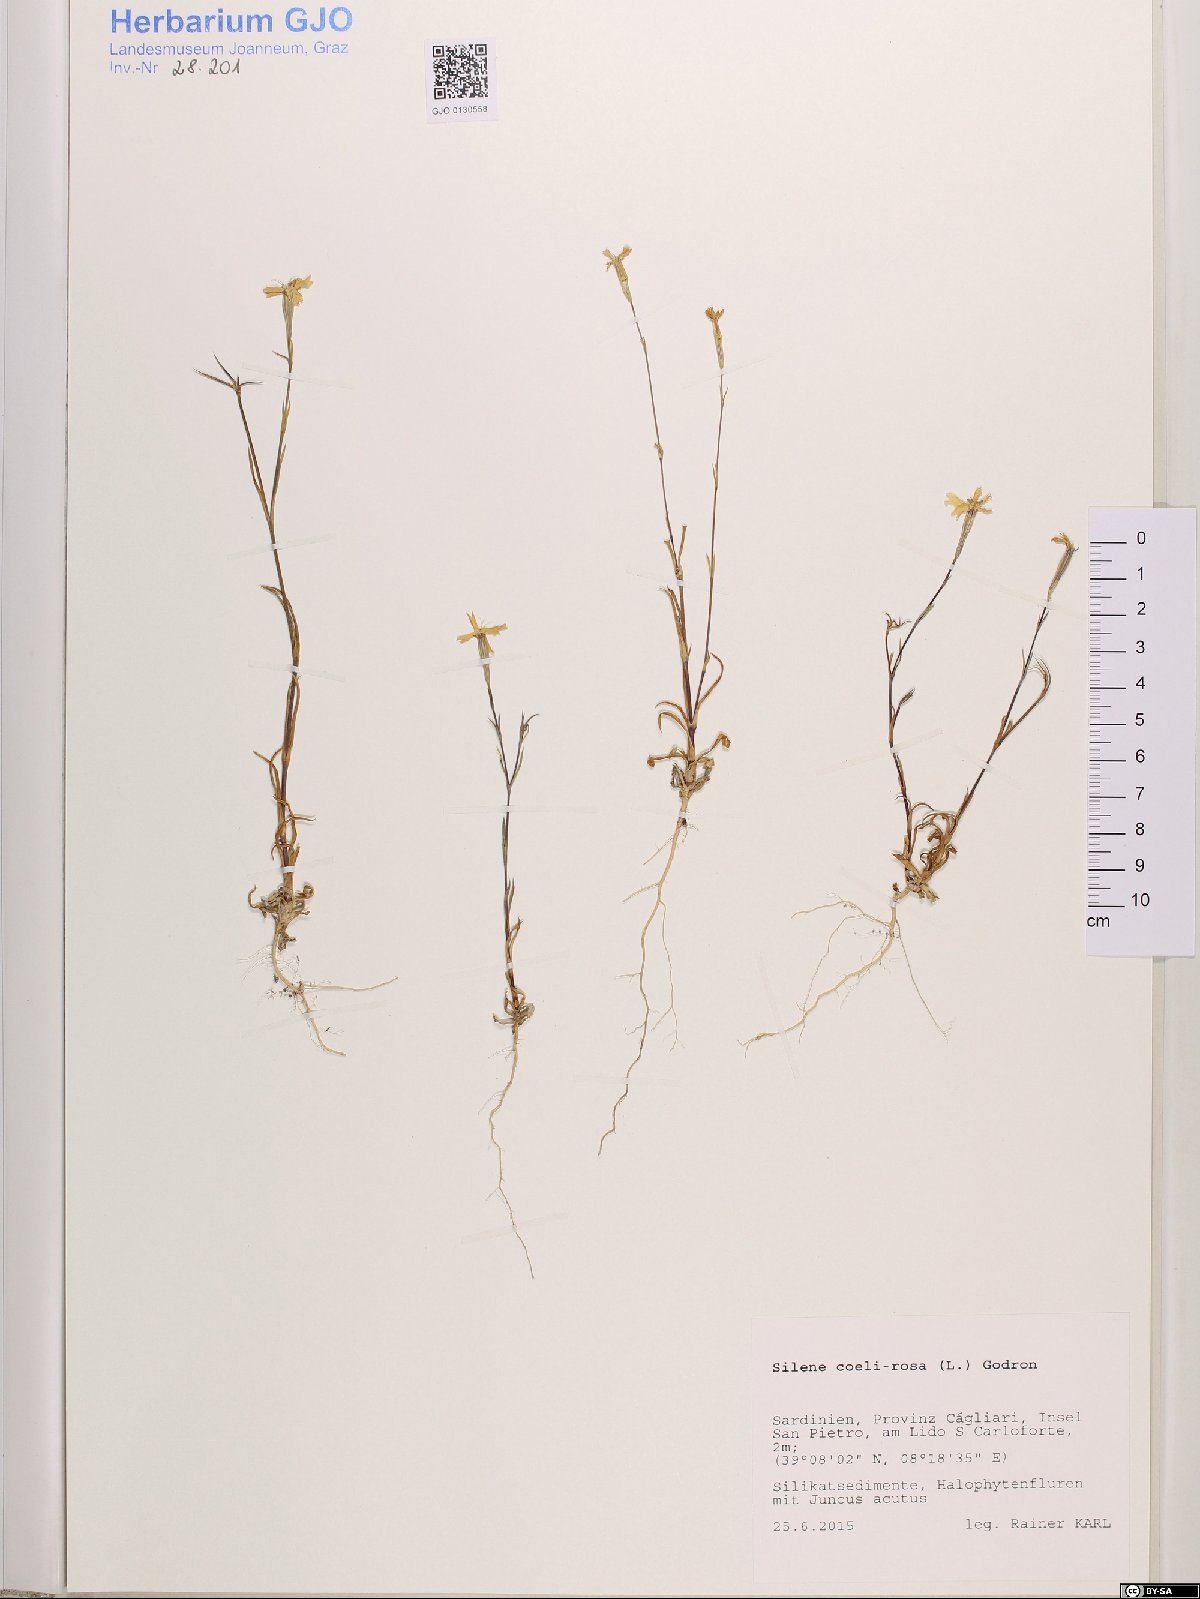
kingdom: Plantae
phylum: Tracheophyta
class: Magnoliopsida
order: Caryophyllales
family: Caryophyllaceae
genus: Eudianthe
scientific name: Eudianthe coeli-rosa
